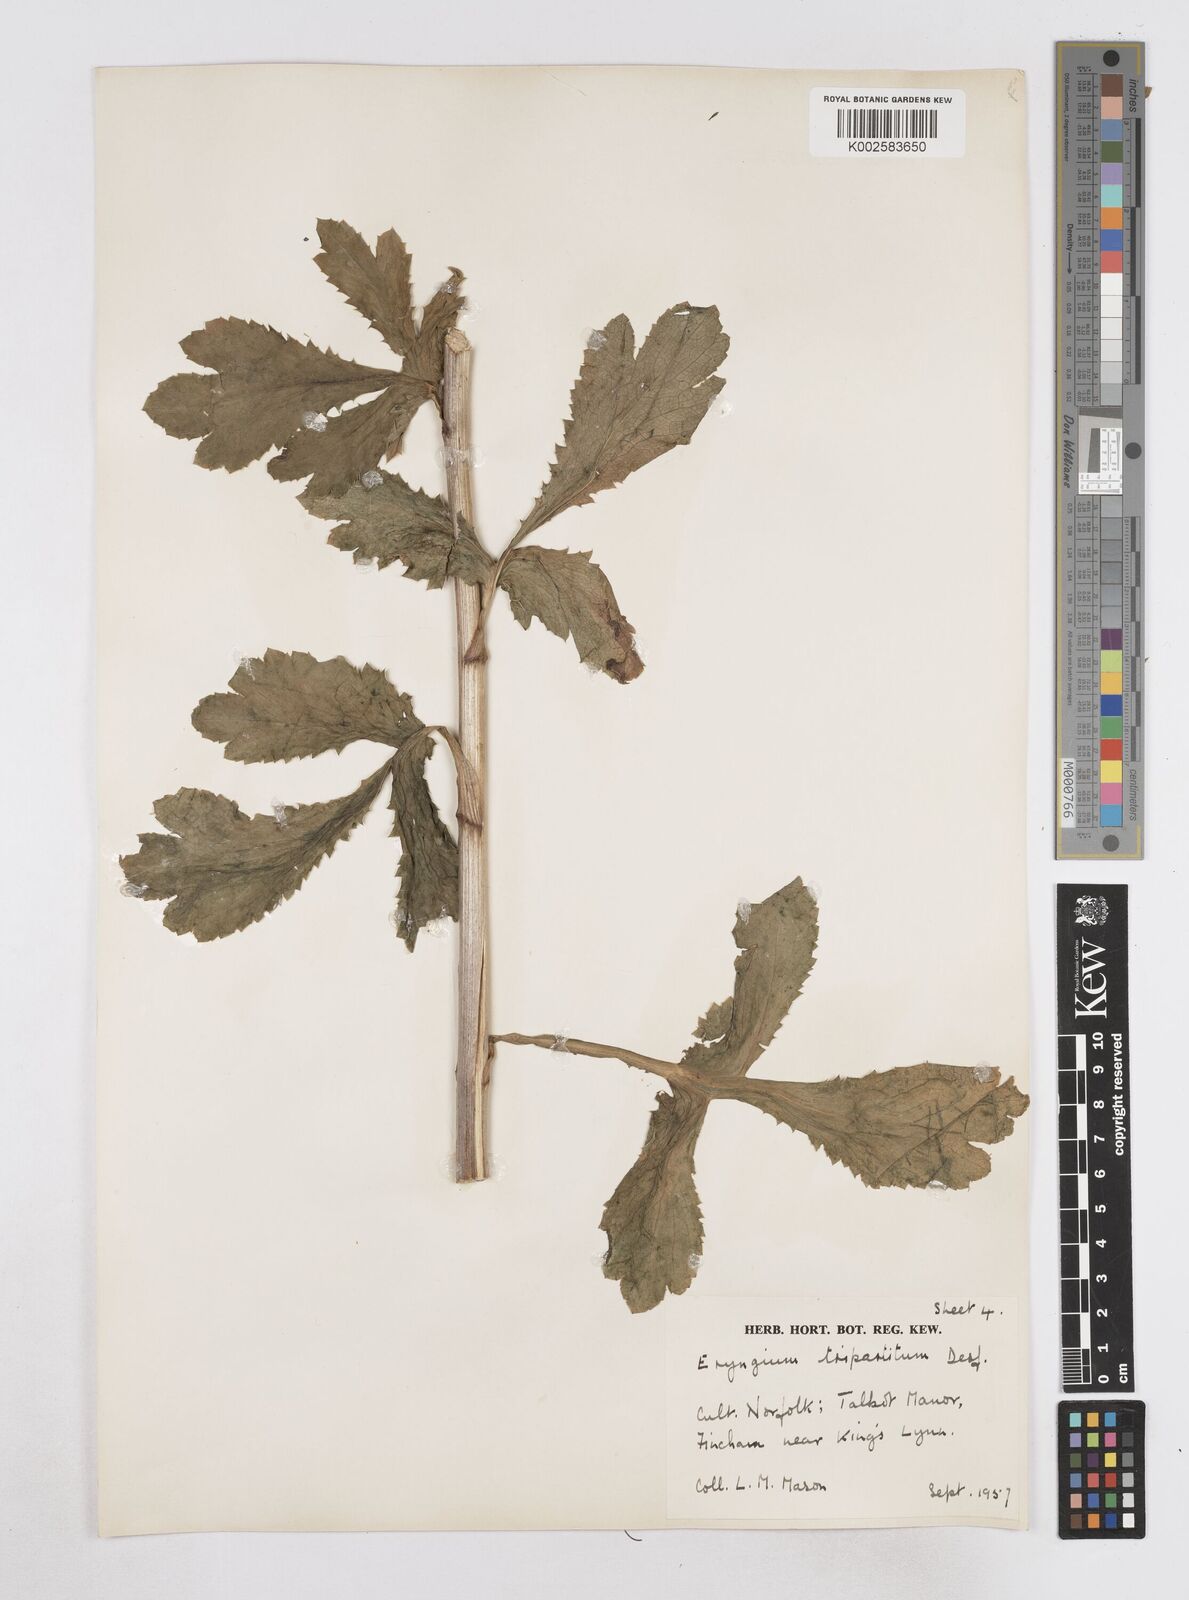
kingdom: Plantae
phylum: Tracheophyta
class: Magnoliopsida
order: Apiales
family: Apiaceae
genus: Eryngium
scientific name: Eryngium tripartitum
